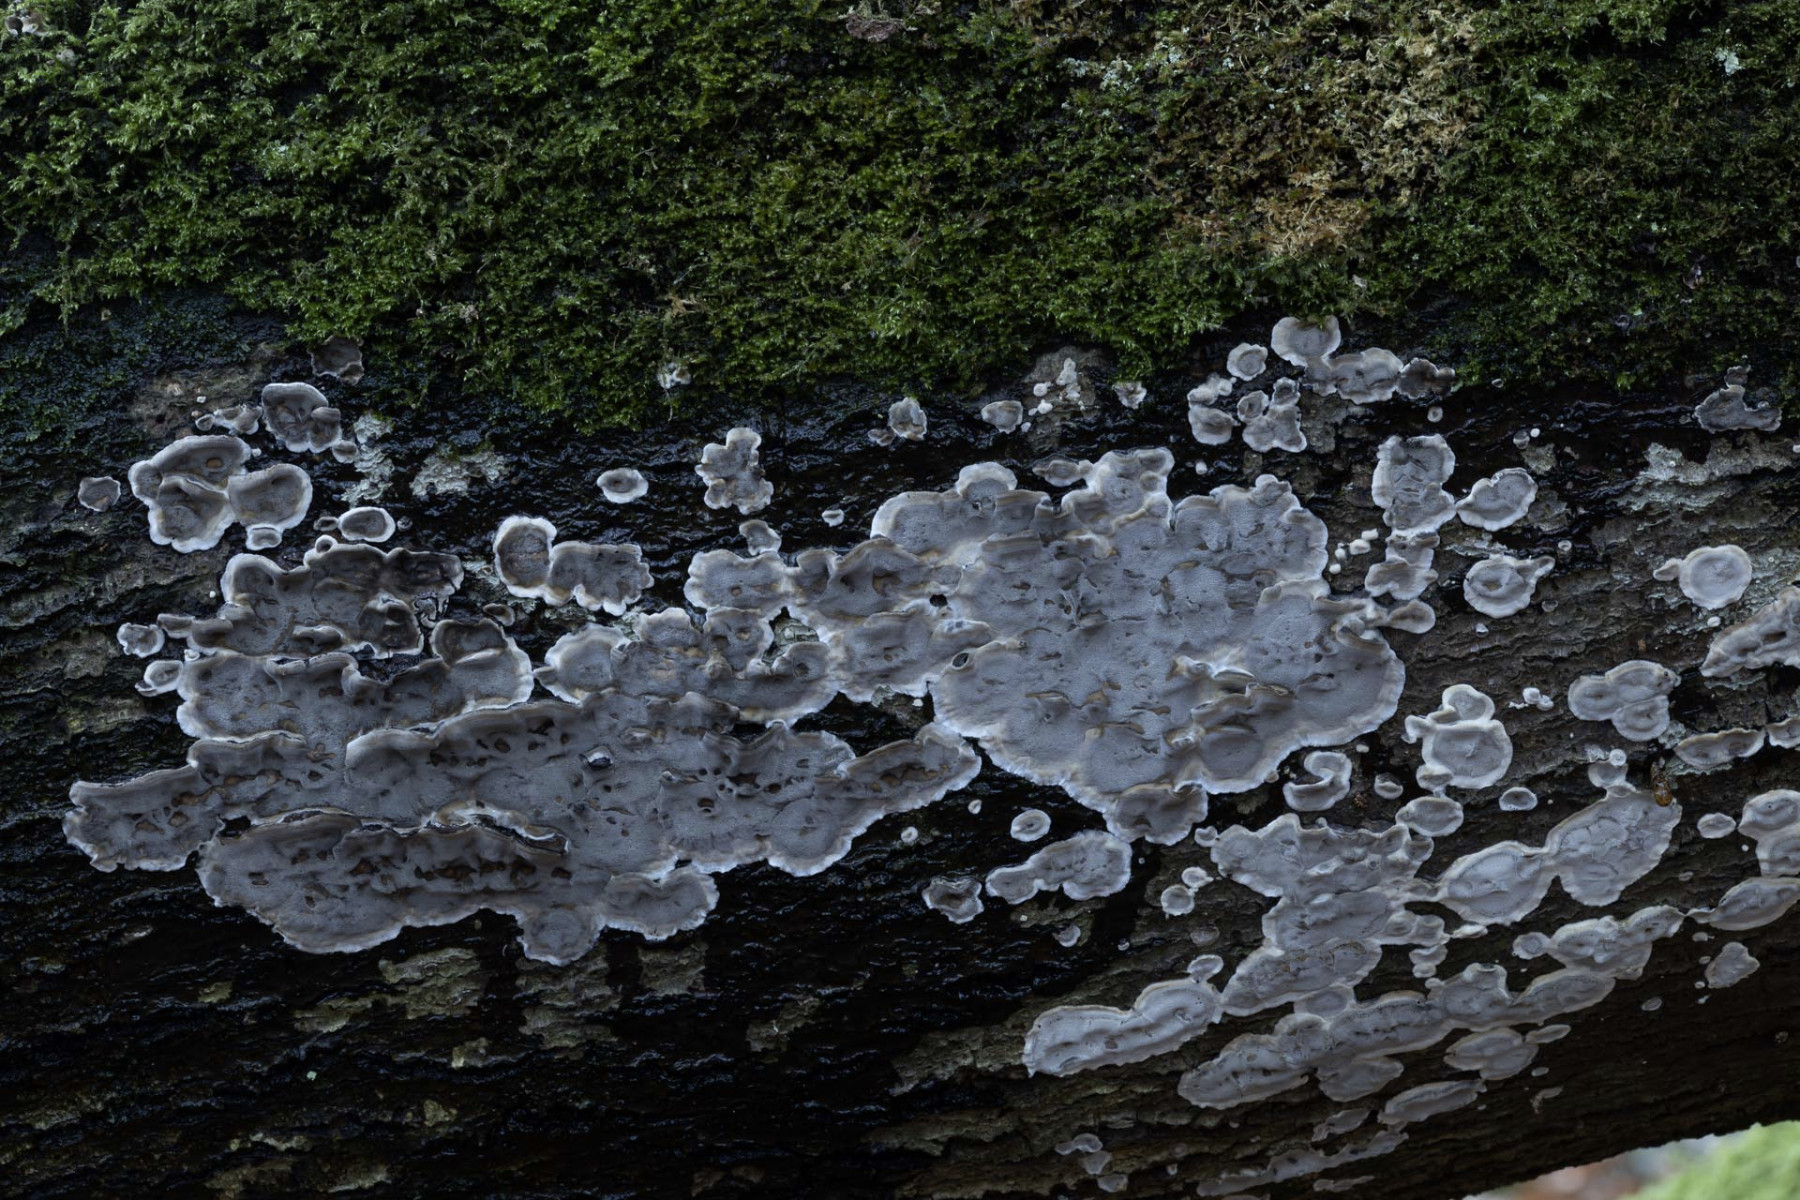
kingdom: Fungi
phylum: Basidiomycota
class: Agaricomycetes
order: Polyporales
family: Phanerochaetaceae
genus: Bjerkandera
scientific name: Bjerkandera adusta
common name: sveden sodporesvamp
